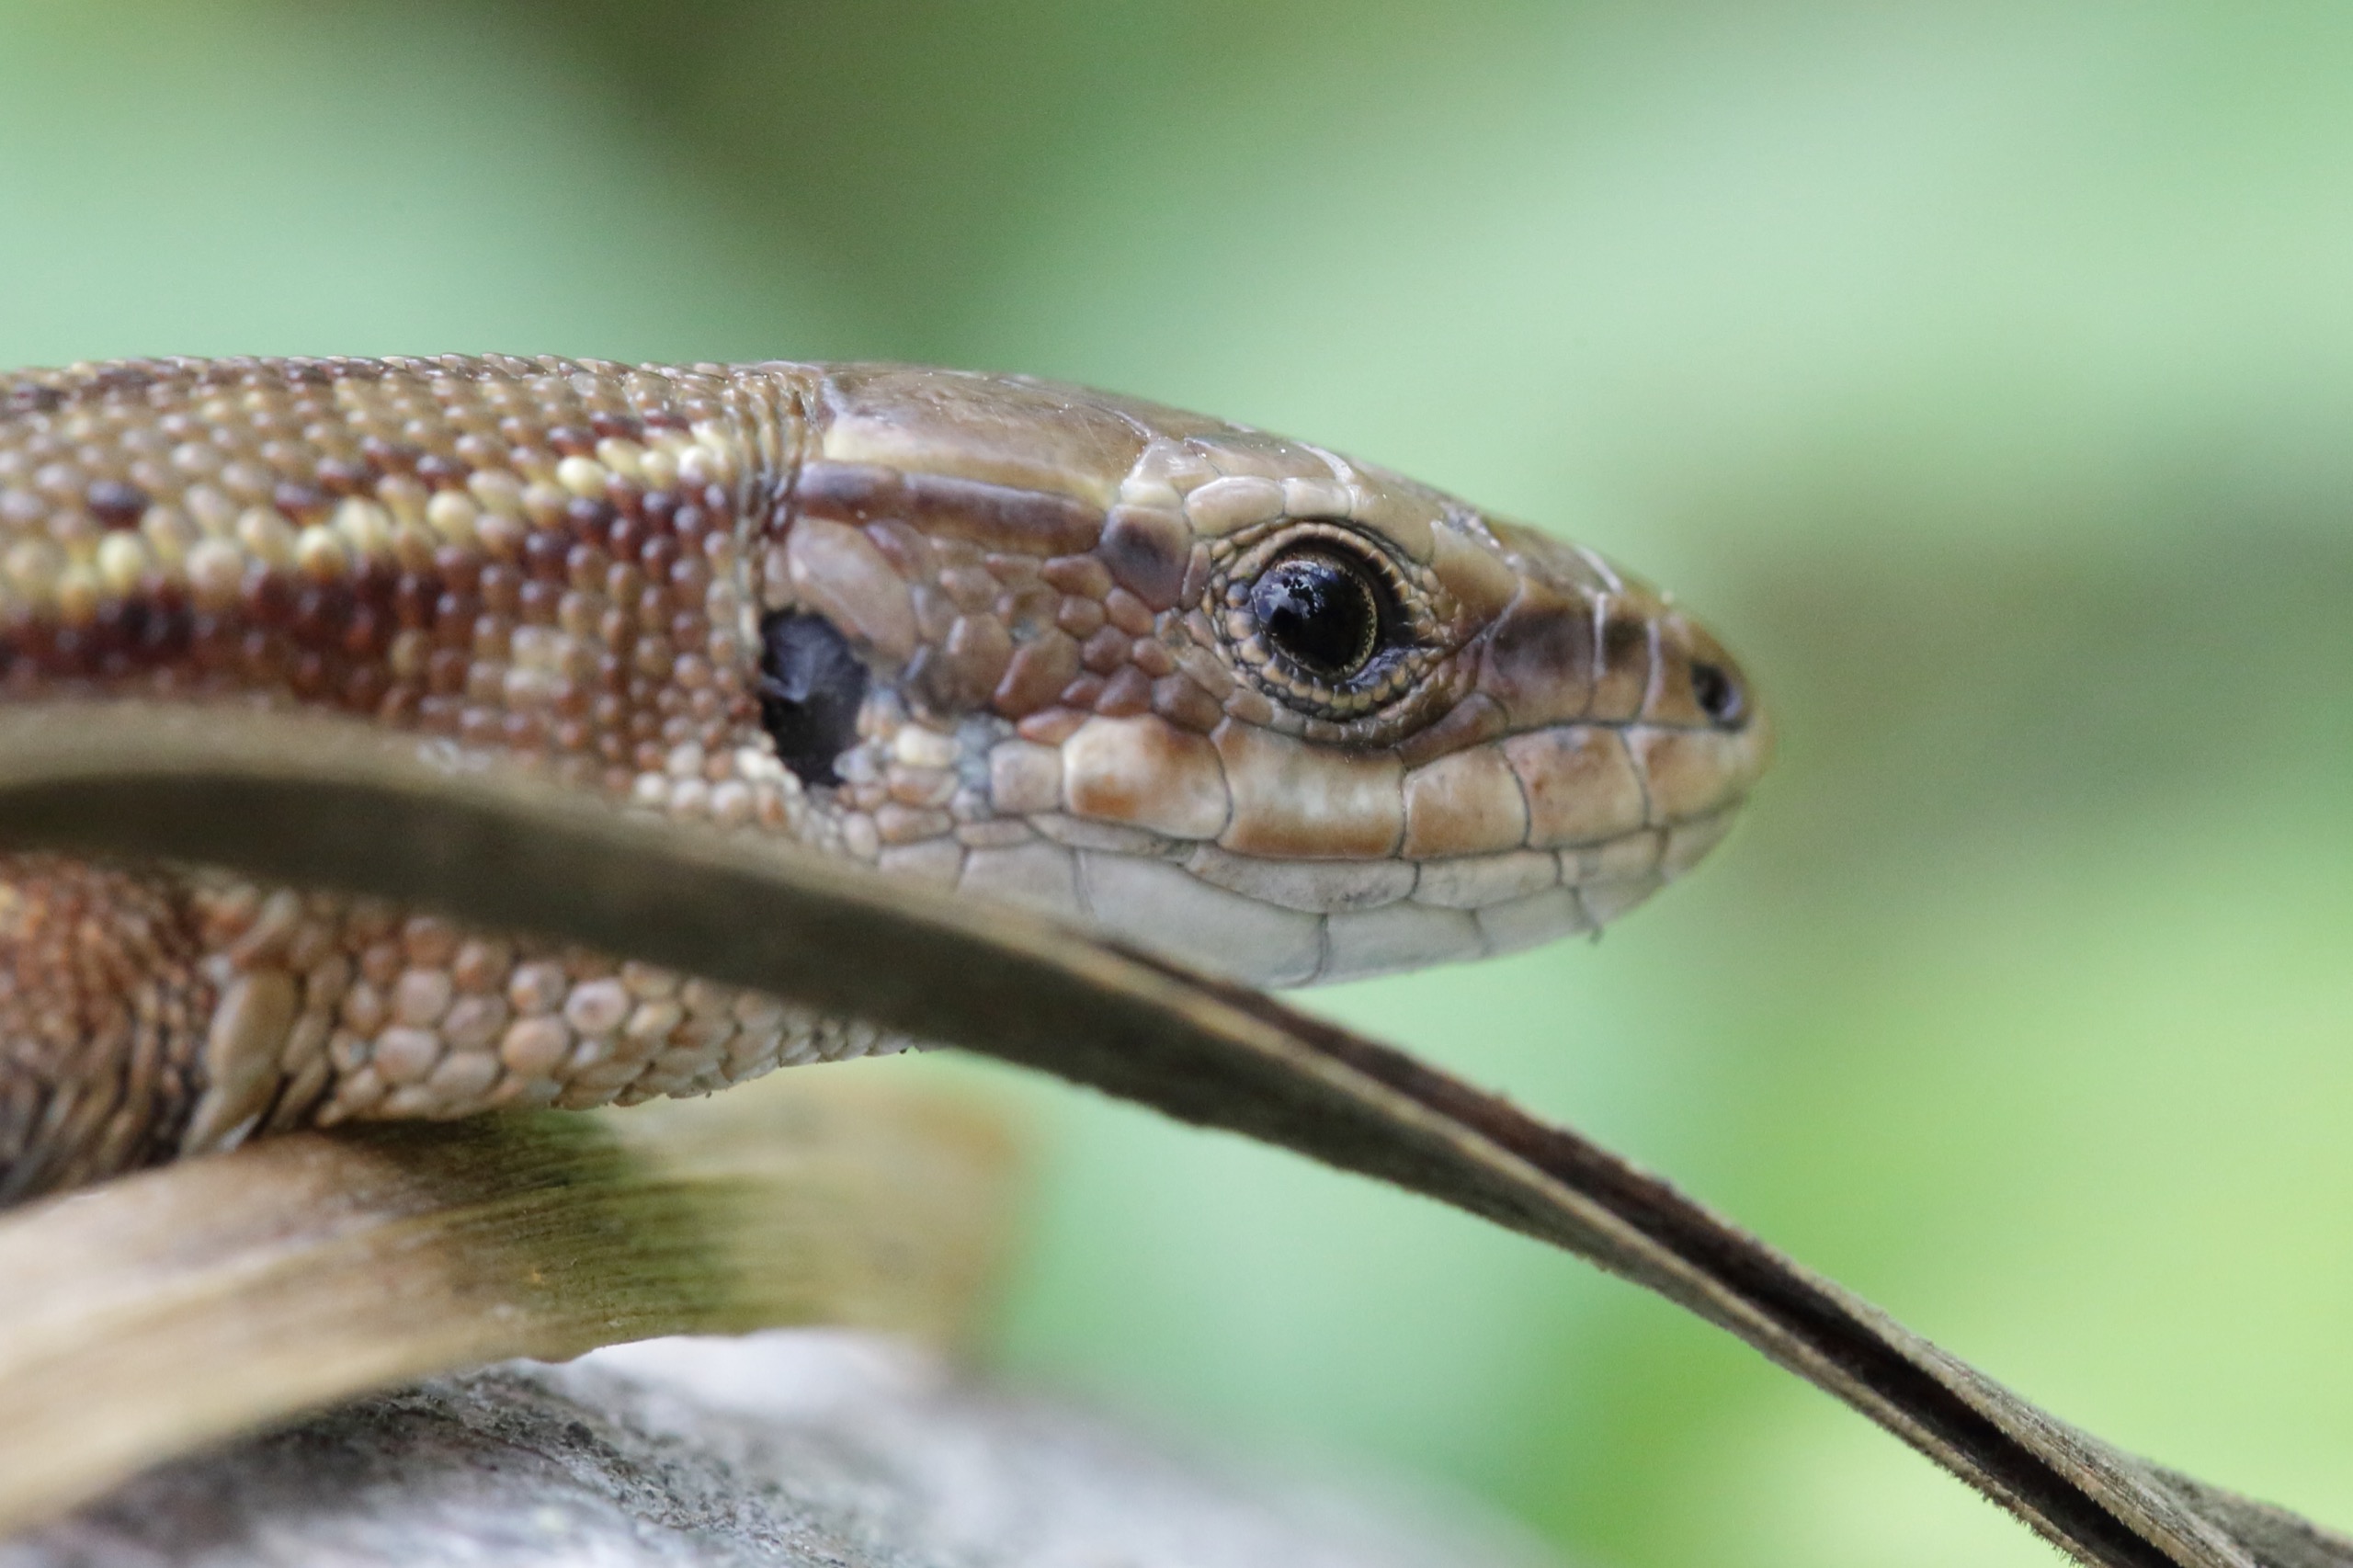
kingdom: Animalia
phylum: Chordata
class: Squamata
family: Lacertidae
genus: Zootoca
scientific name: Zootoca vivipara
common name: Skovfirben
